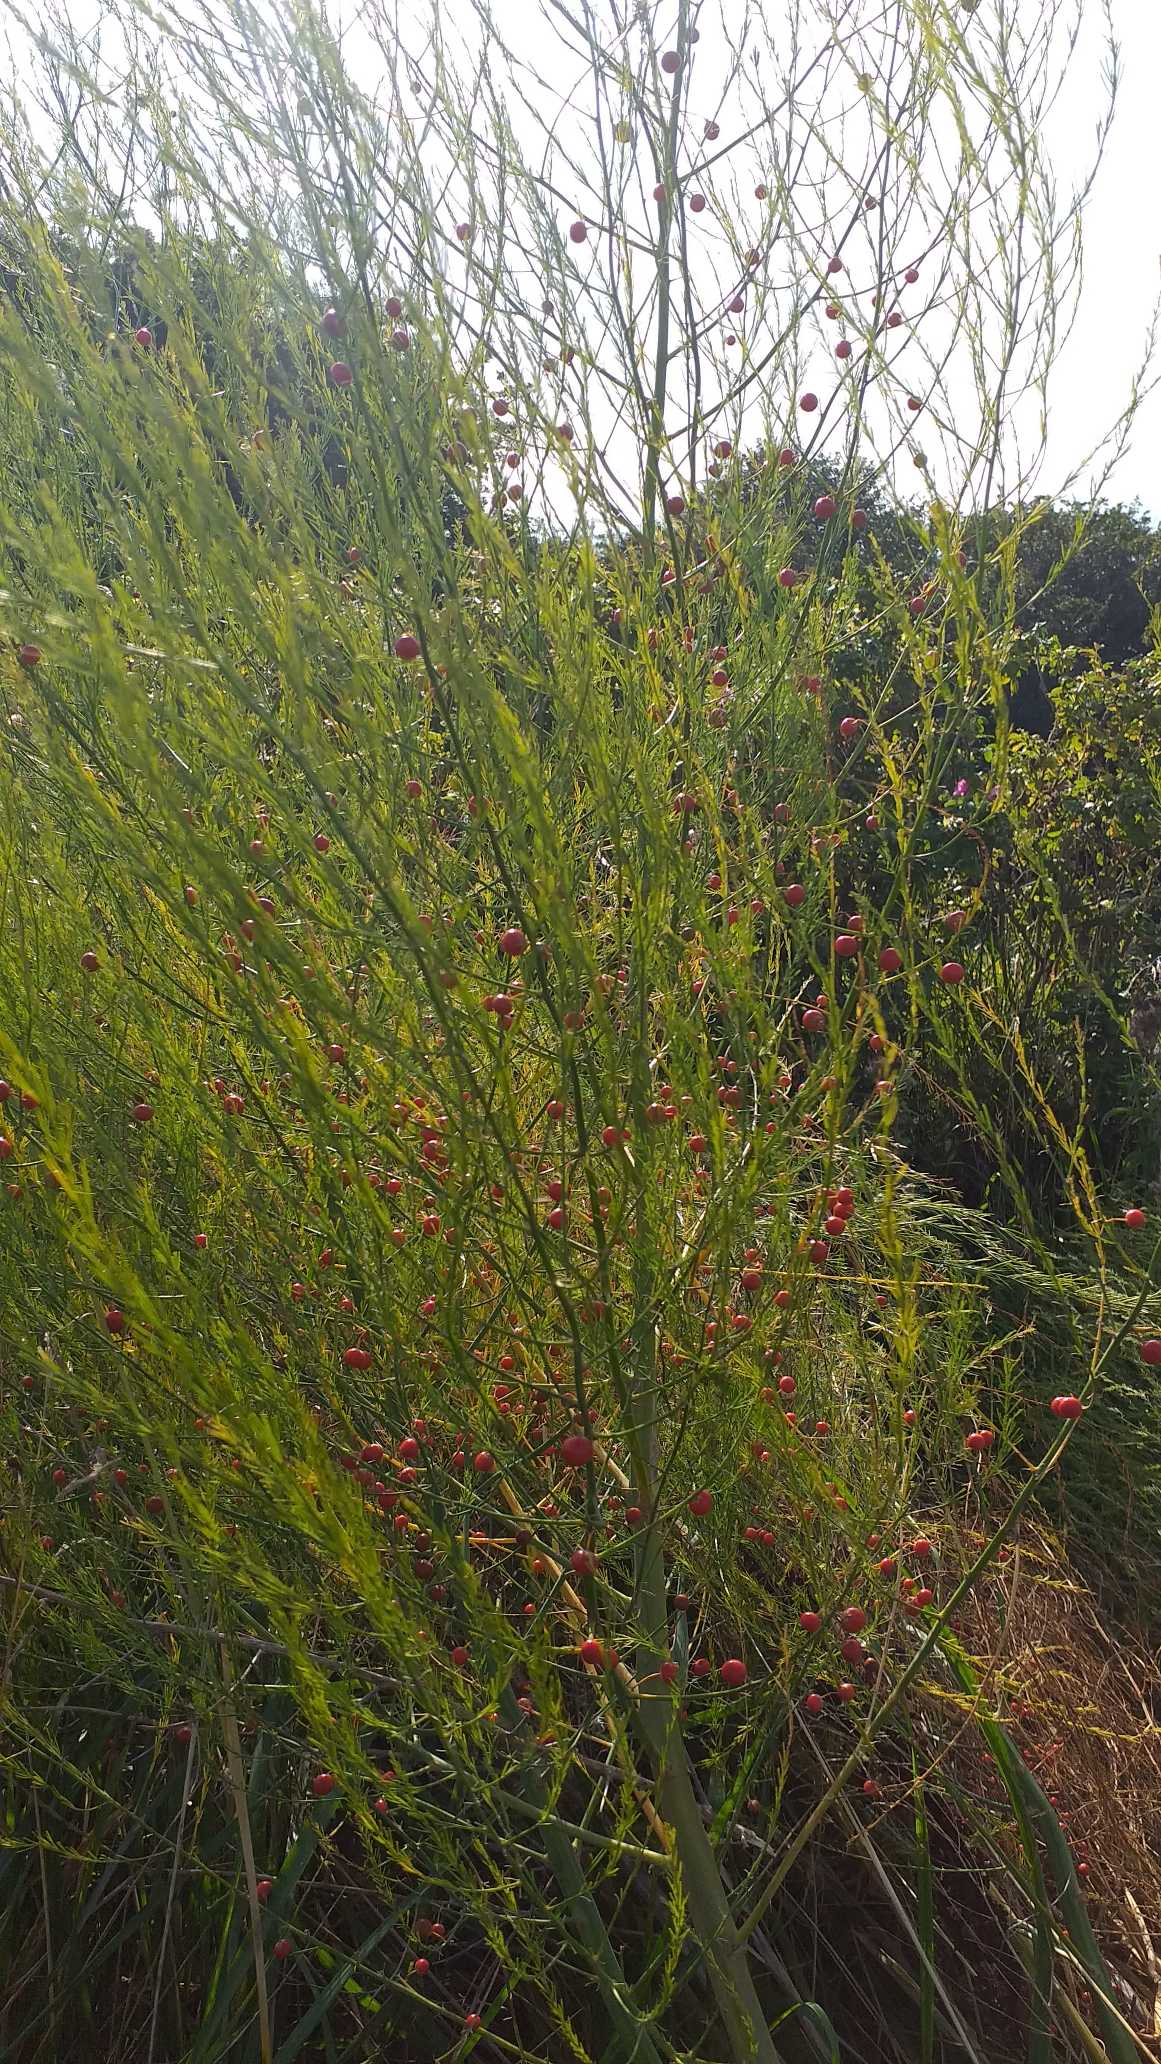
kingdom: Plantae
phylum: Tracheophyta
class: Liliopsida
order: Asparagales
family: Asparagaceae
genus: Asparagus
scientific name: Asparagus officinalis
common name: Asparges
